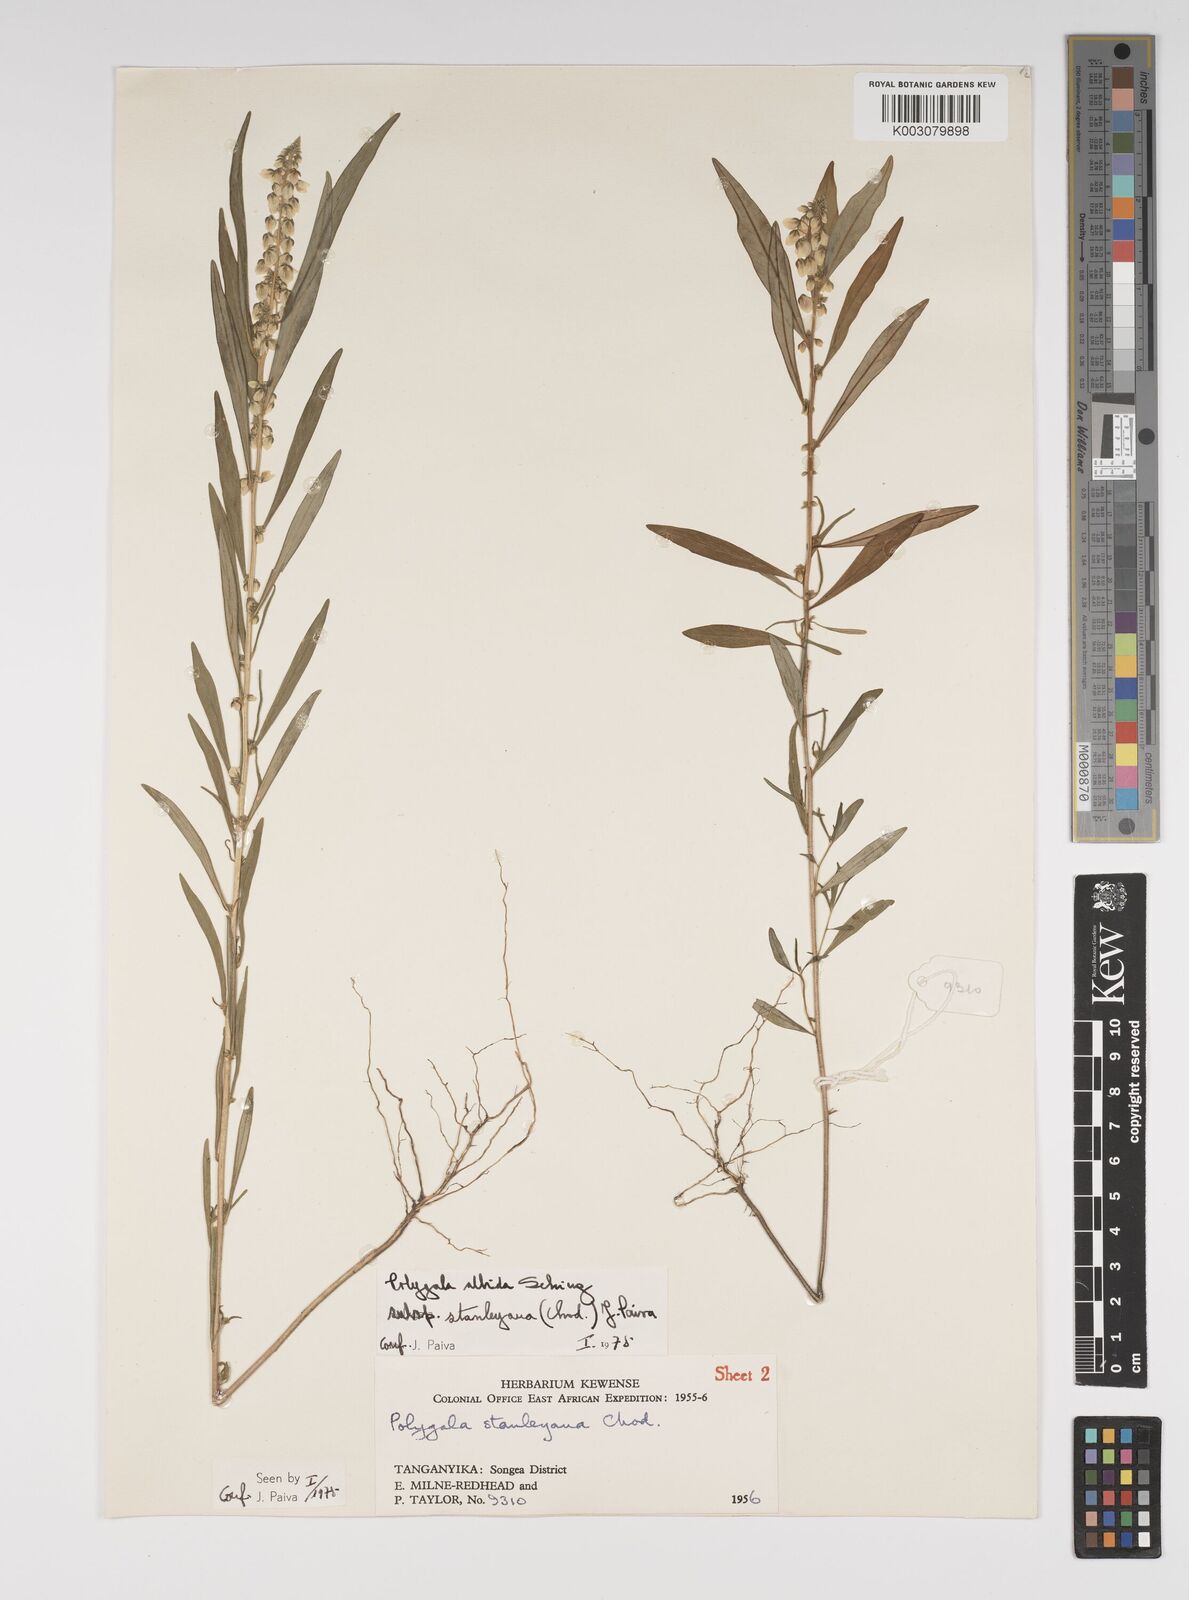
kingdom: Plantae
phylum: Tracheophyta
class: Magnoliopsida
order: Fabales
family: Polygalaceae
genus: Polygala
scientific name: Polygala albida
